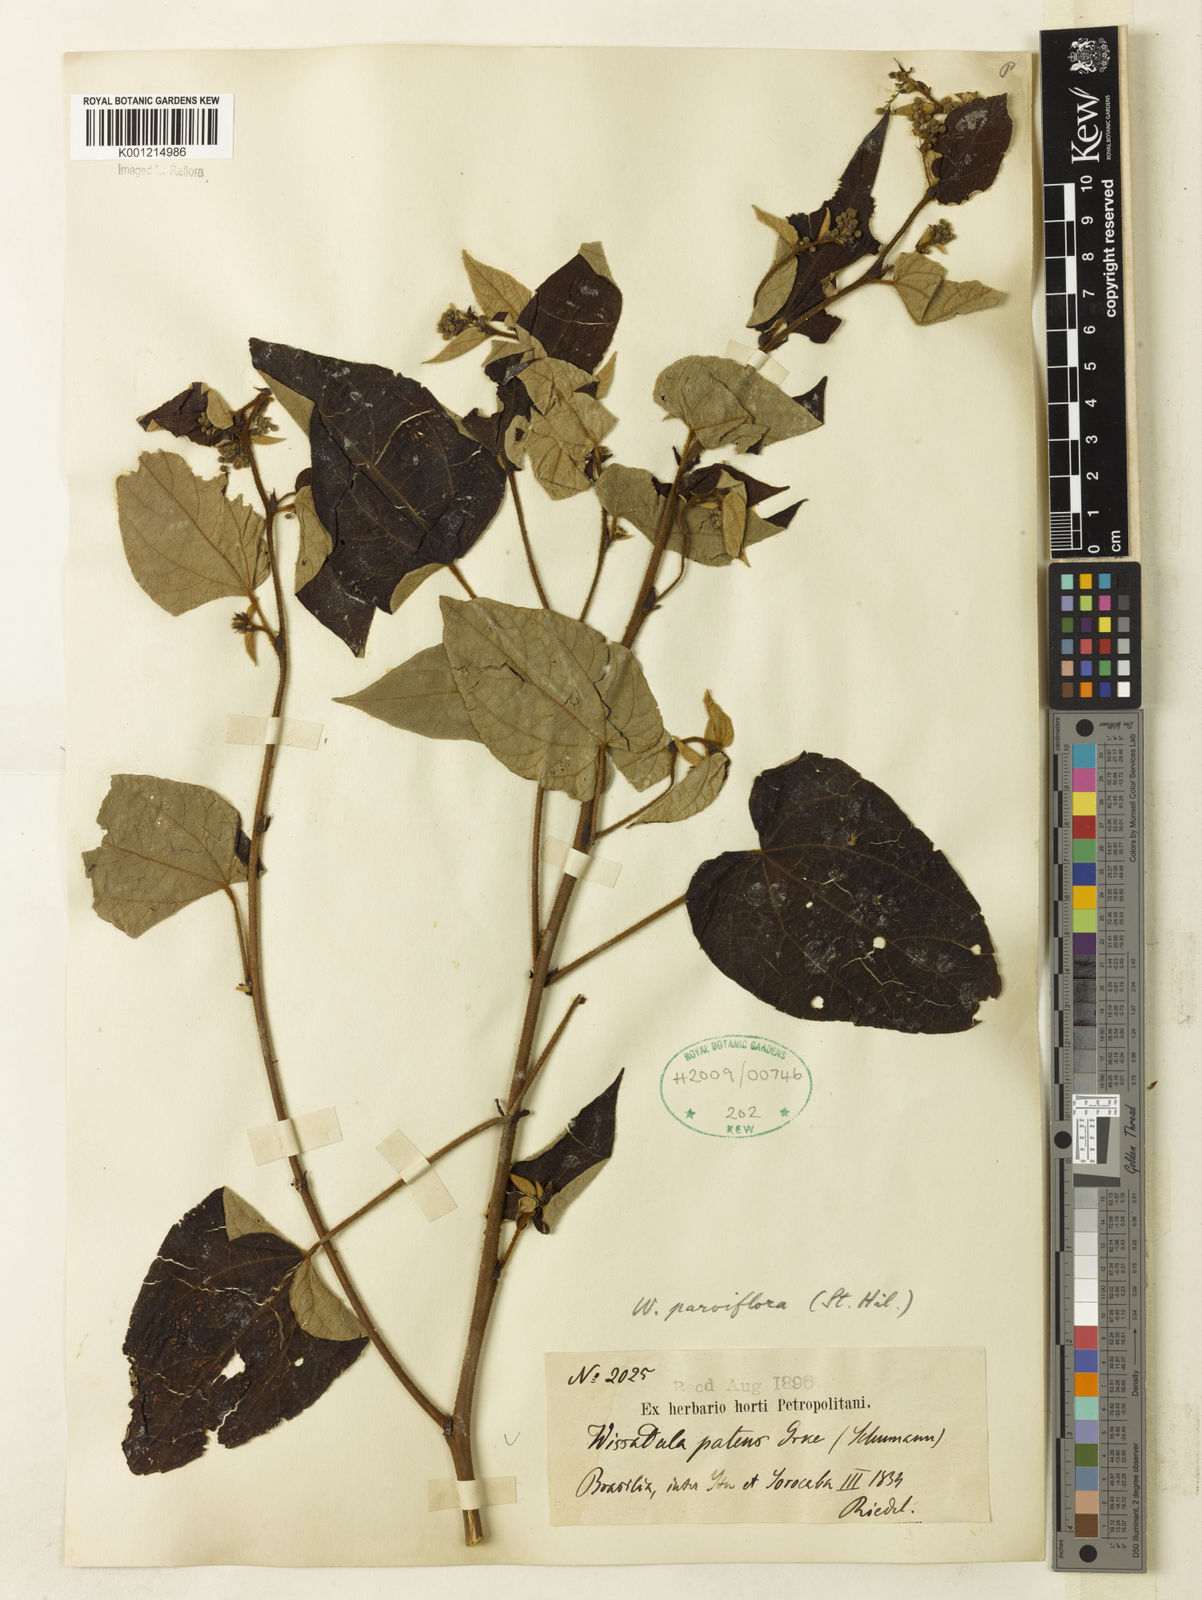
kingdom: Plantae
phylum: Tracheophyta
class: Magnoliopsida
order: Malvales
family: Malvaceae
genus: Wissadula
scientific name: Wissadula parviflora
